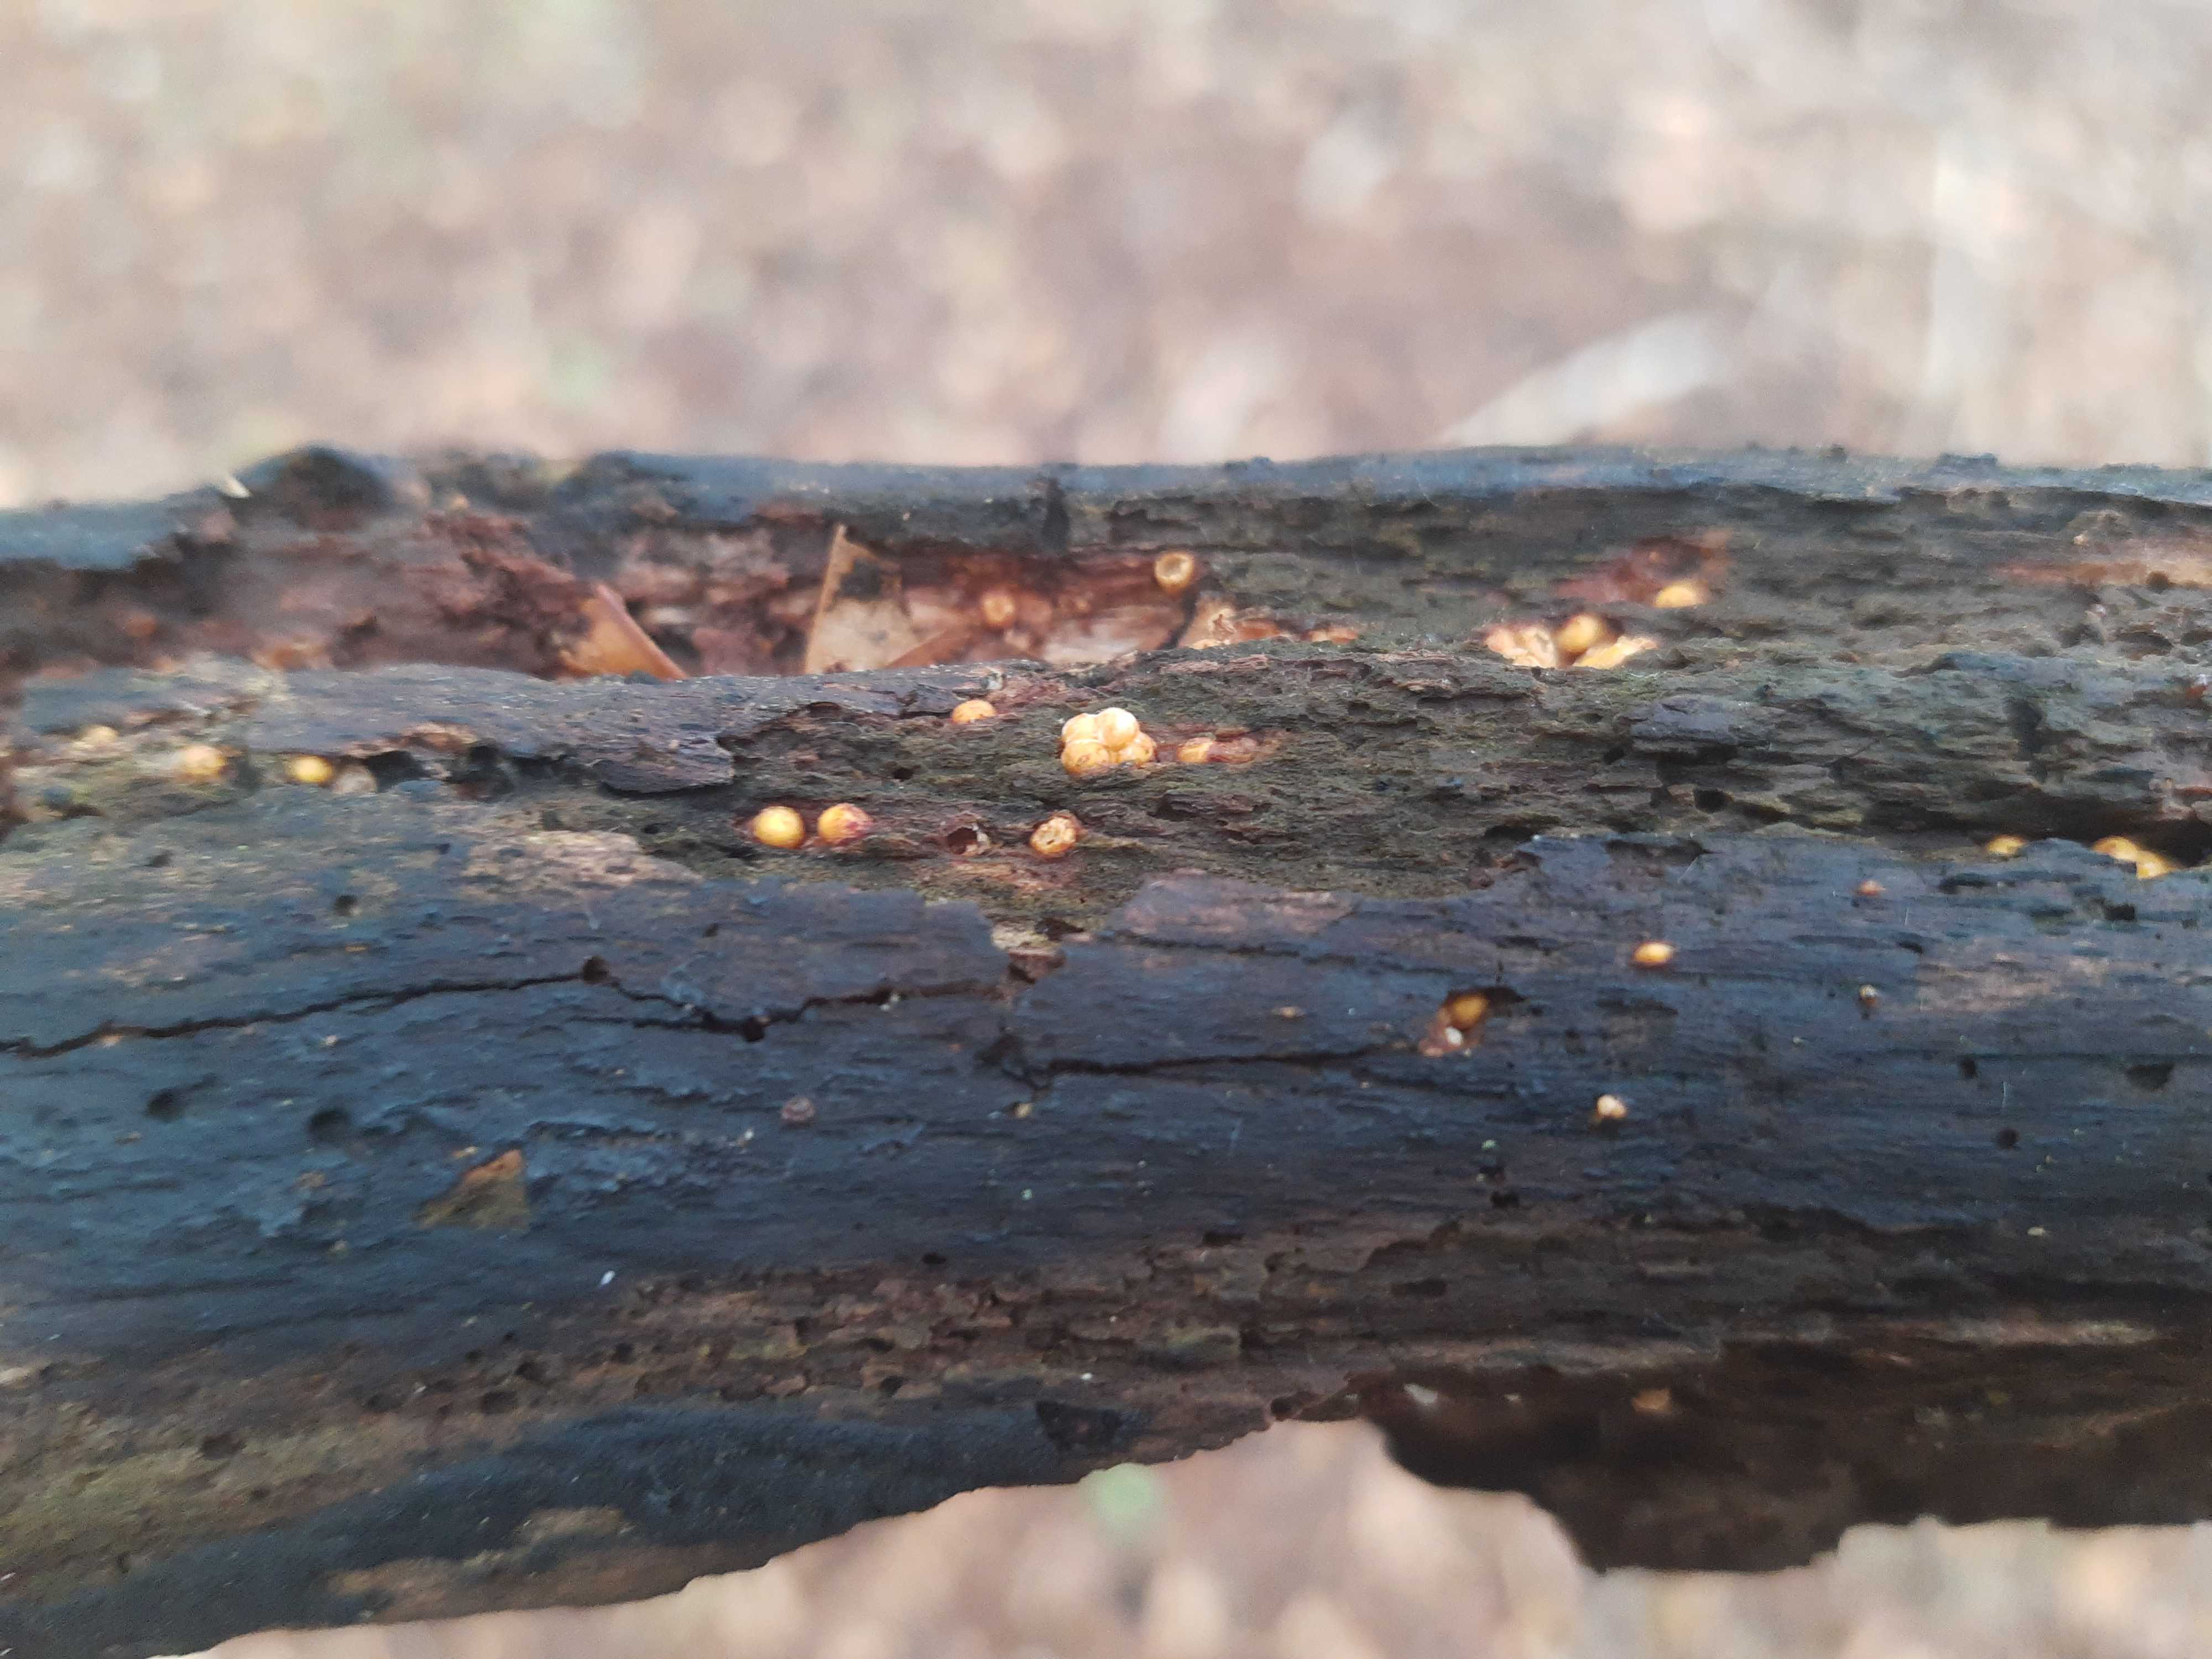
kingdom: Fungi
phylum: Basidiomycota
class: Agaricomycetes
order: Geastrales
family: Geastraceae
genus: Sphaerobolus
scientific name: Sphaerobolus stellatus
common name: bombekaster
